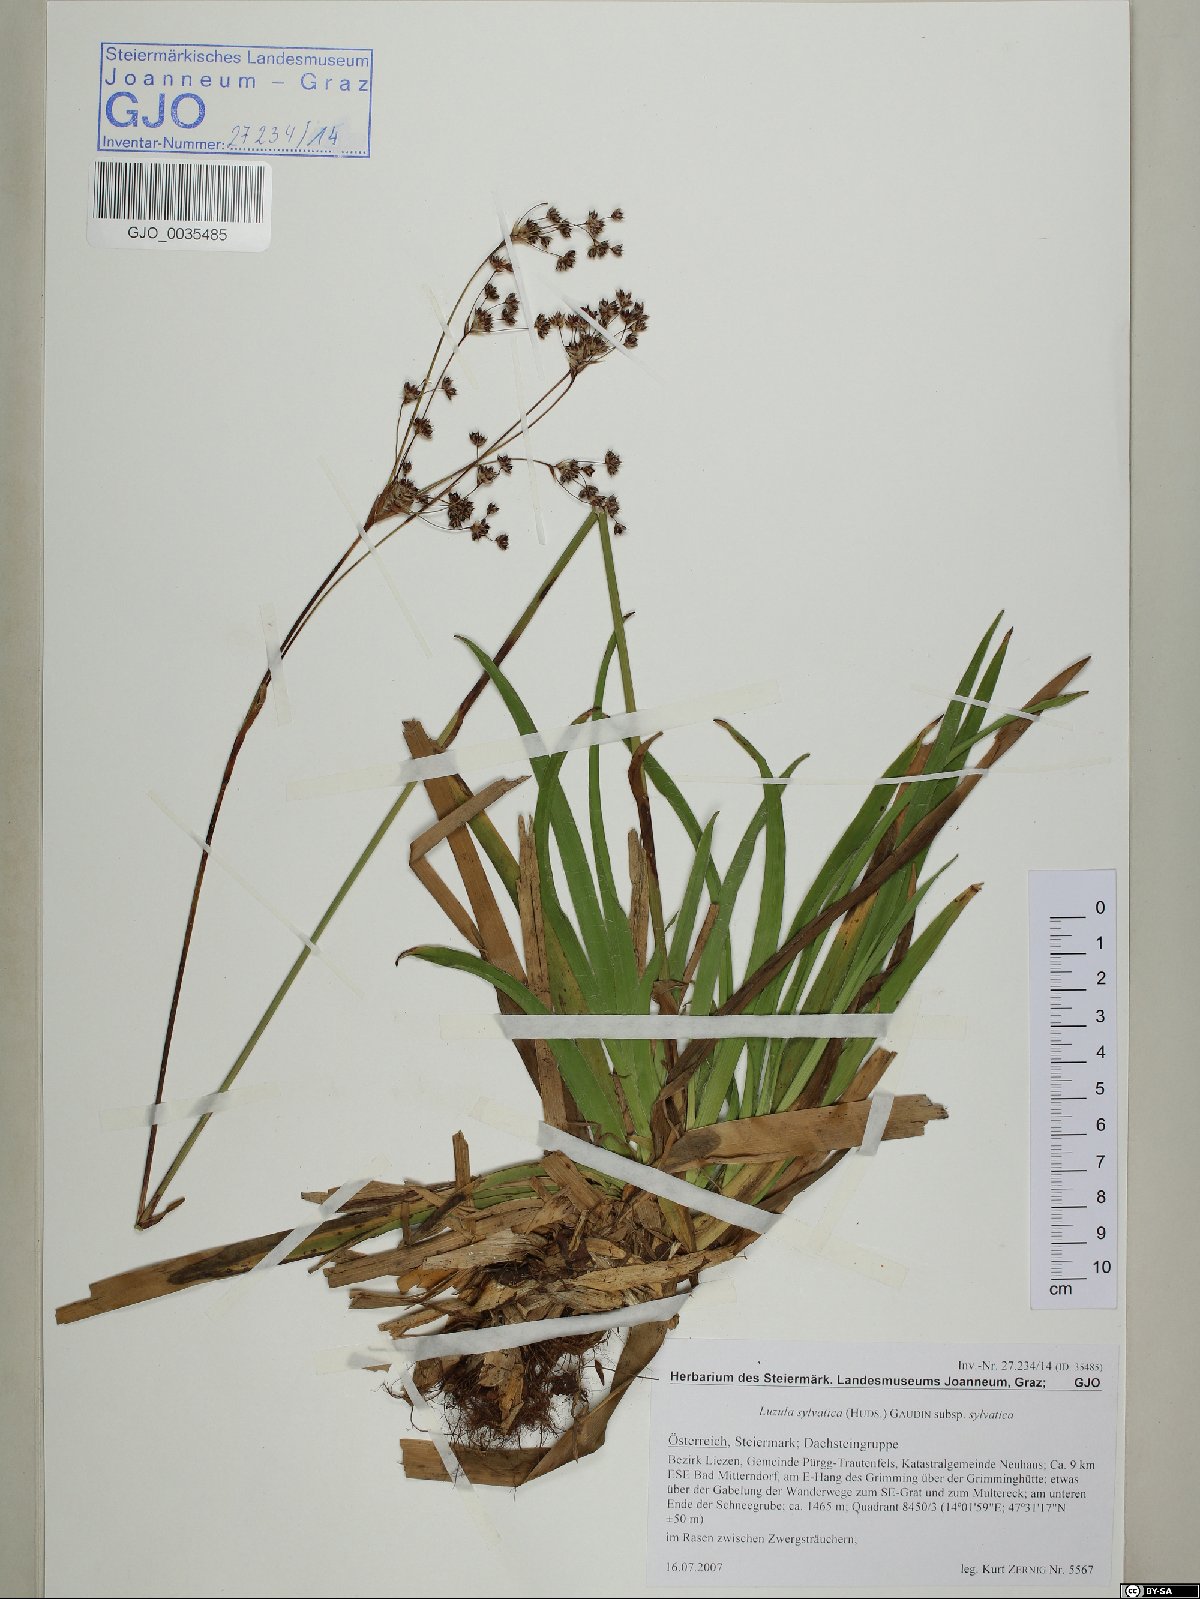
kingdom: Plantae
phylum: Tracheophyta
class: Liliopsida
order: Poales
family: Juncaceae
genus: Luzula
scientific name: Luzula sylvatica
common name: Great wood-rush
